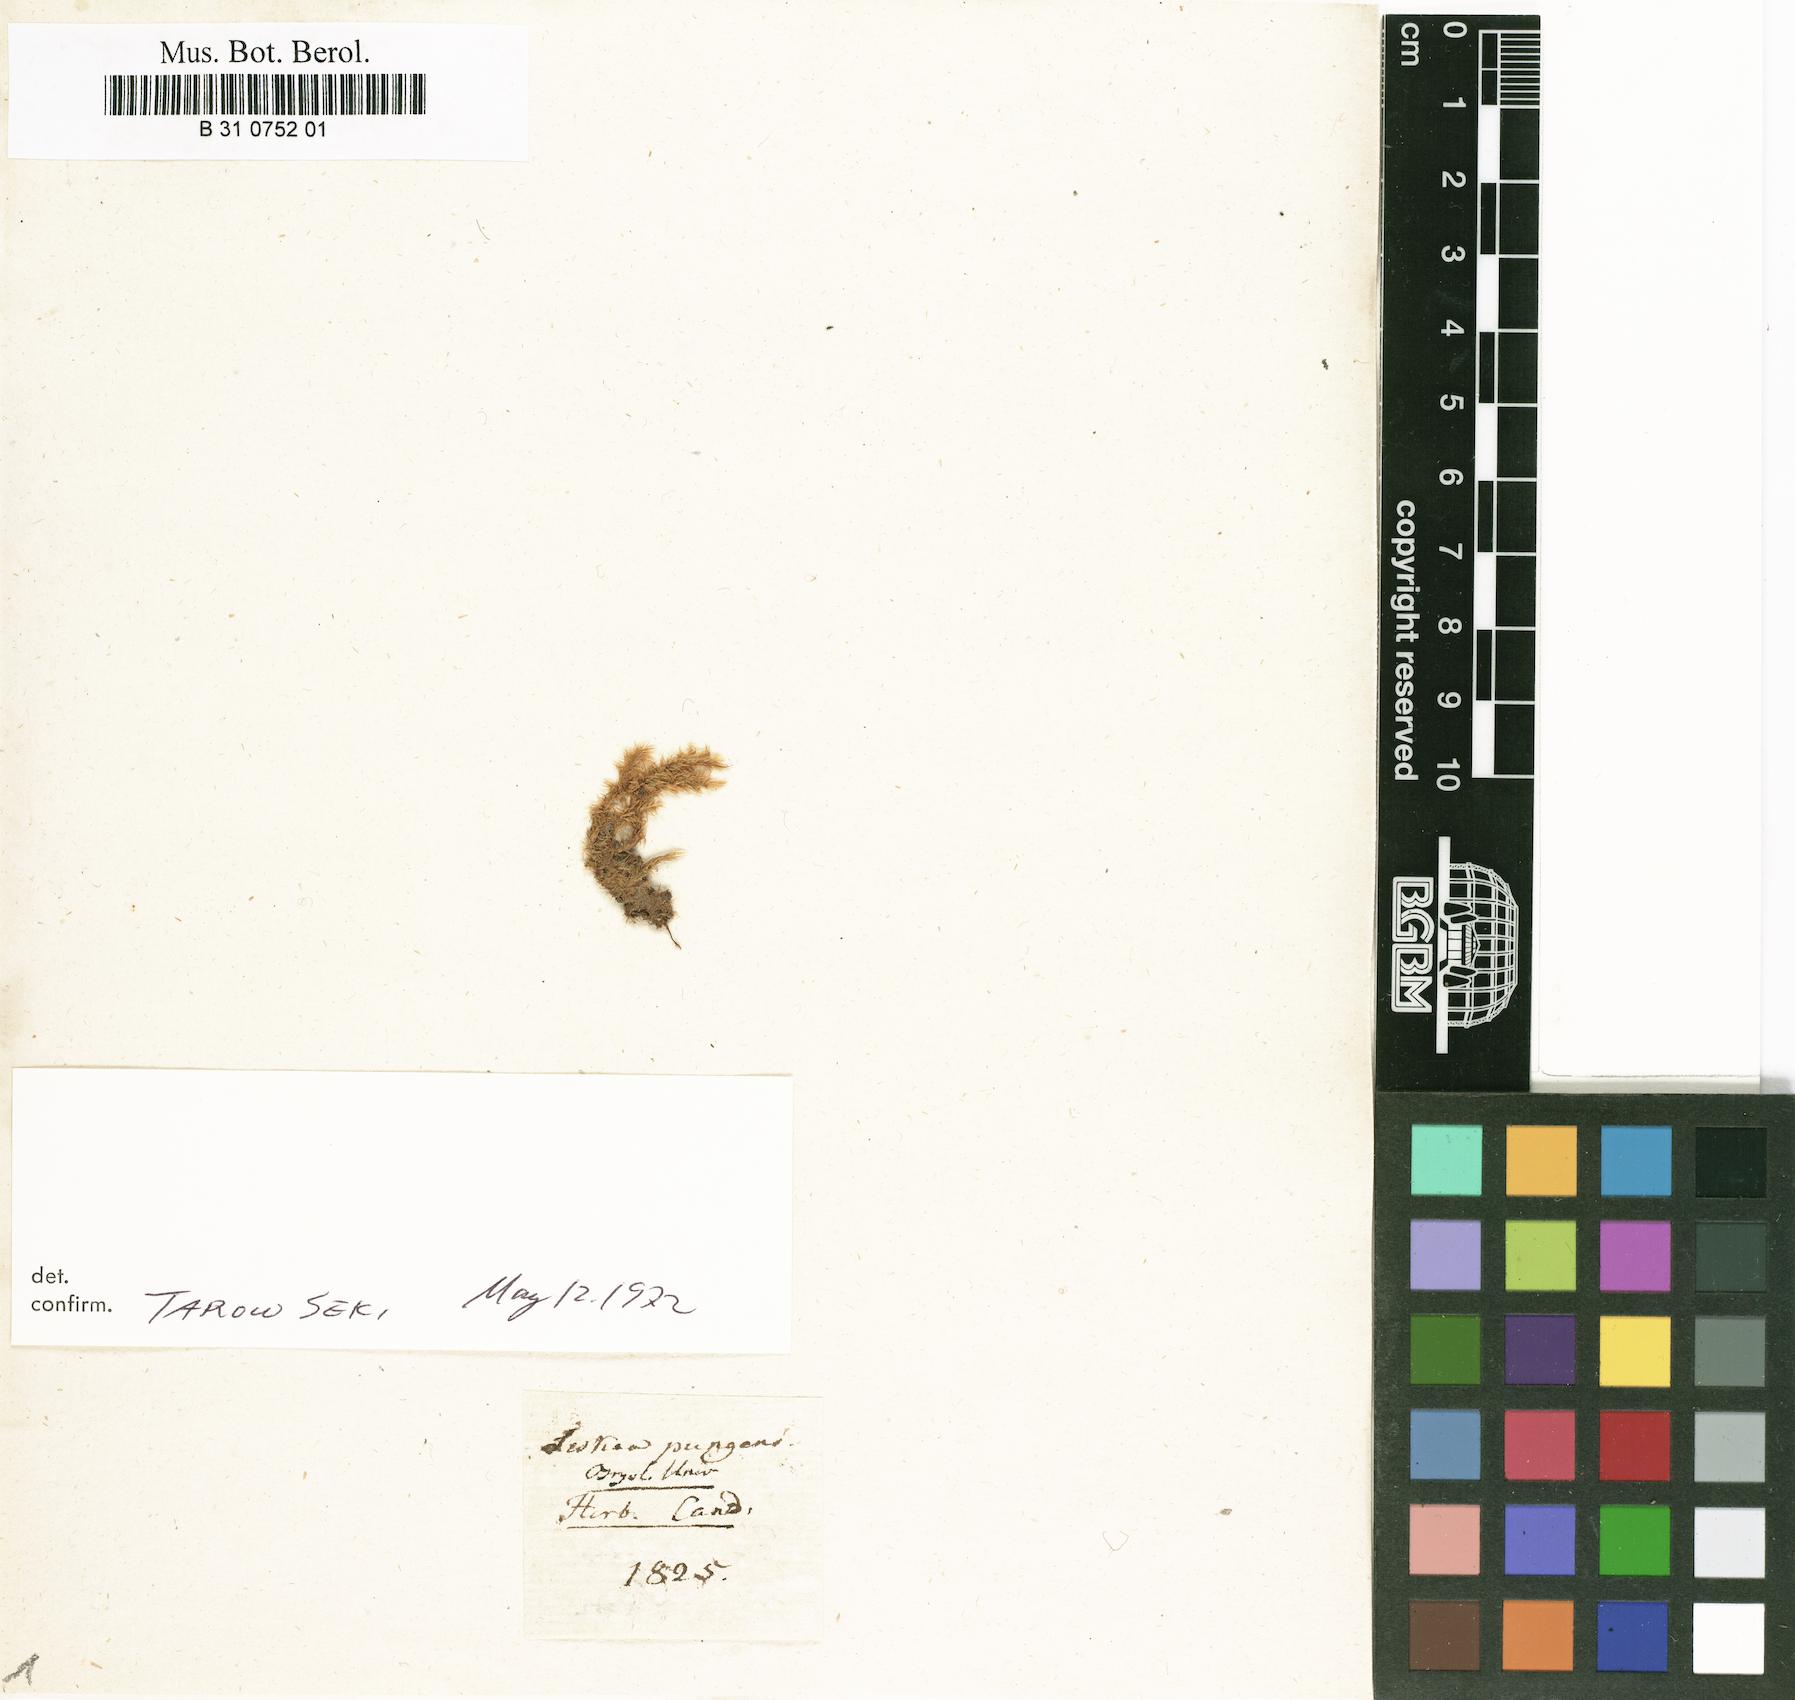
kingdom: Plantae
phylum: Bryophyta
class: Bryopsida
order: Hypnales
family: Sematophyllaceae
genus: Acroporium
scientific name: Acroporium pungens
